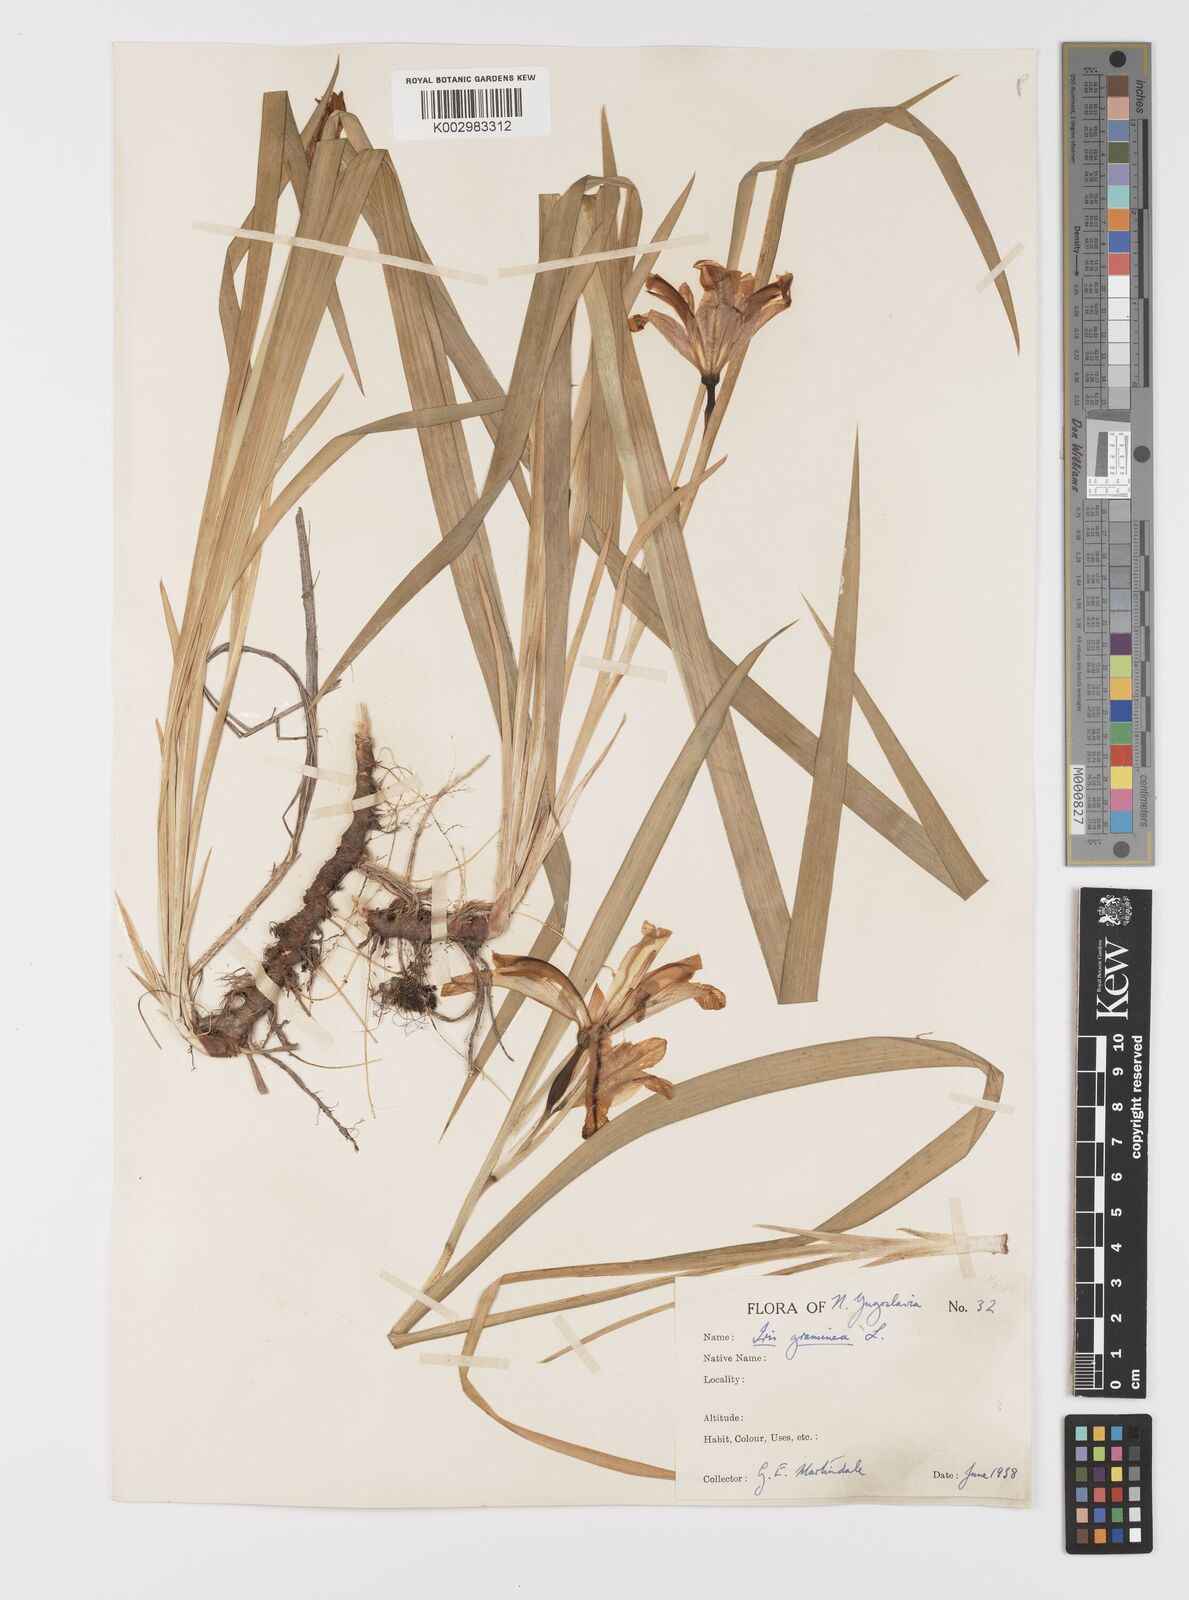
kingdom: Plantae
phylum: Tracheophyta
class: Liliopsida
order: Asparagales
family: Iridaceae
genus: Iris
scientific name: Iris graminea
